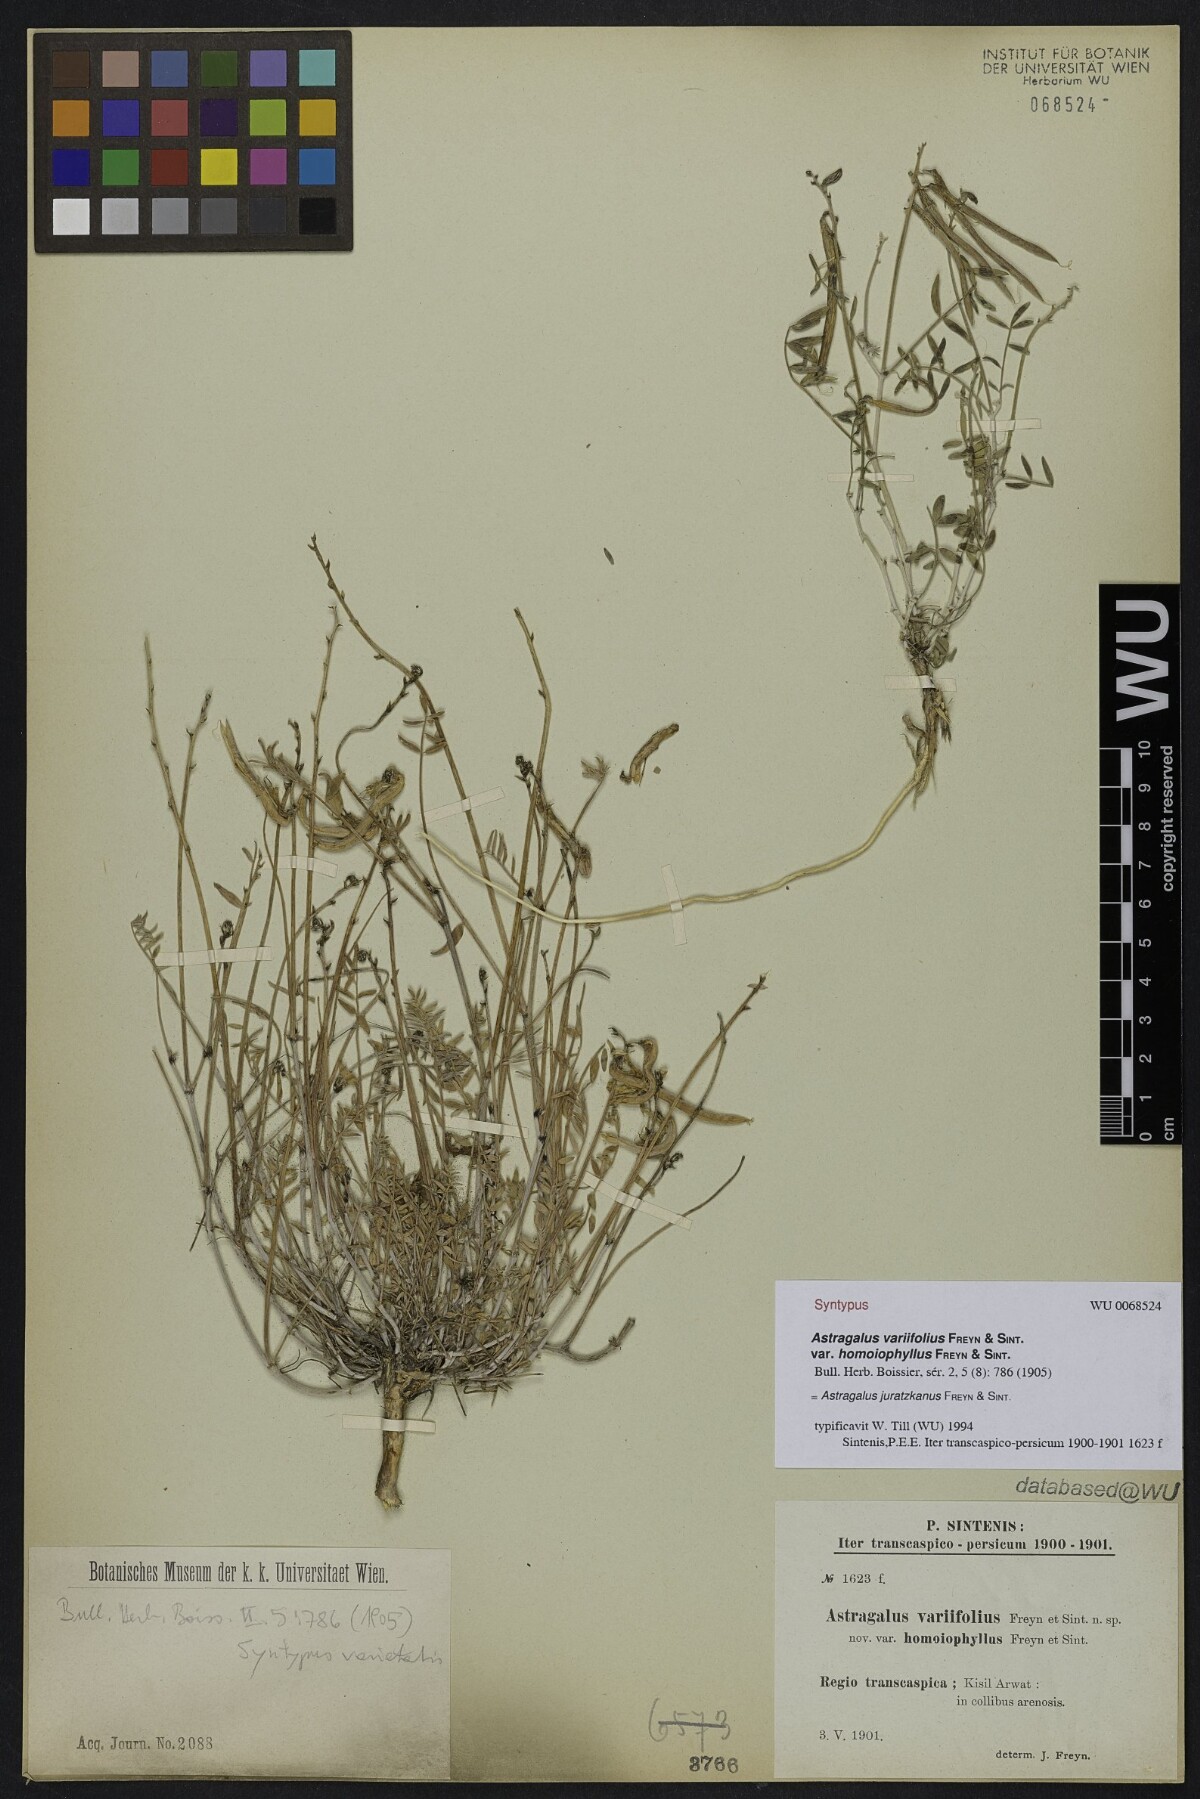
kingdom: Plantae
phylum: Tracheophyta
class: Magnoliopsida
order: Fabales
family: Fabaceae
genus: Astragalus
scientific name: Astragalus juratzkanus
